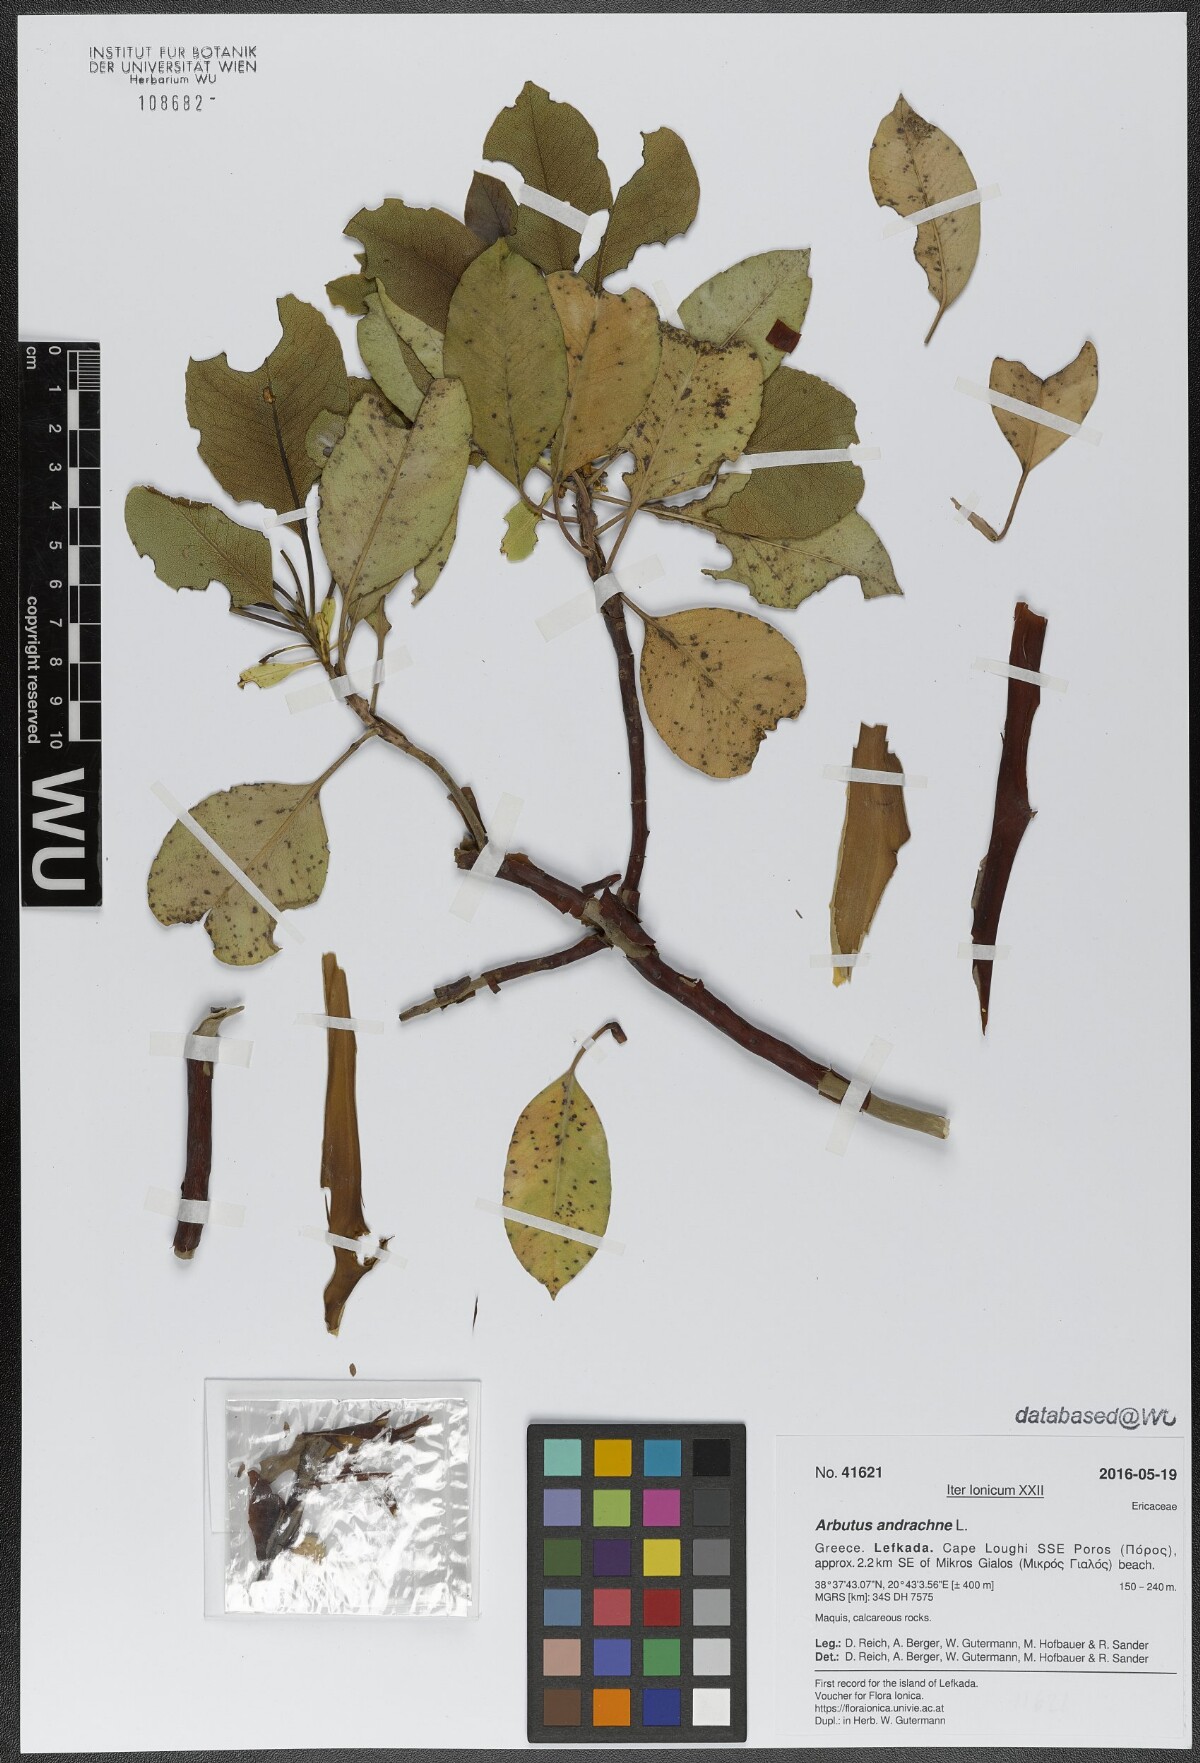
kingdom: Plantae
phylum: Tracheophyta
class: Magnoliopsida
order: Ericales
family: Ericaceae
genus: Arbutus
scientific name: Arbutus andrachne
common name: Greek strawberry tree
